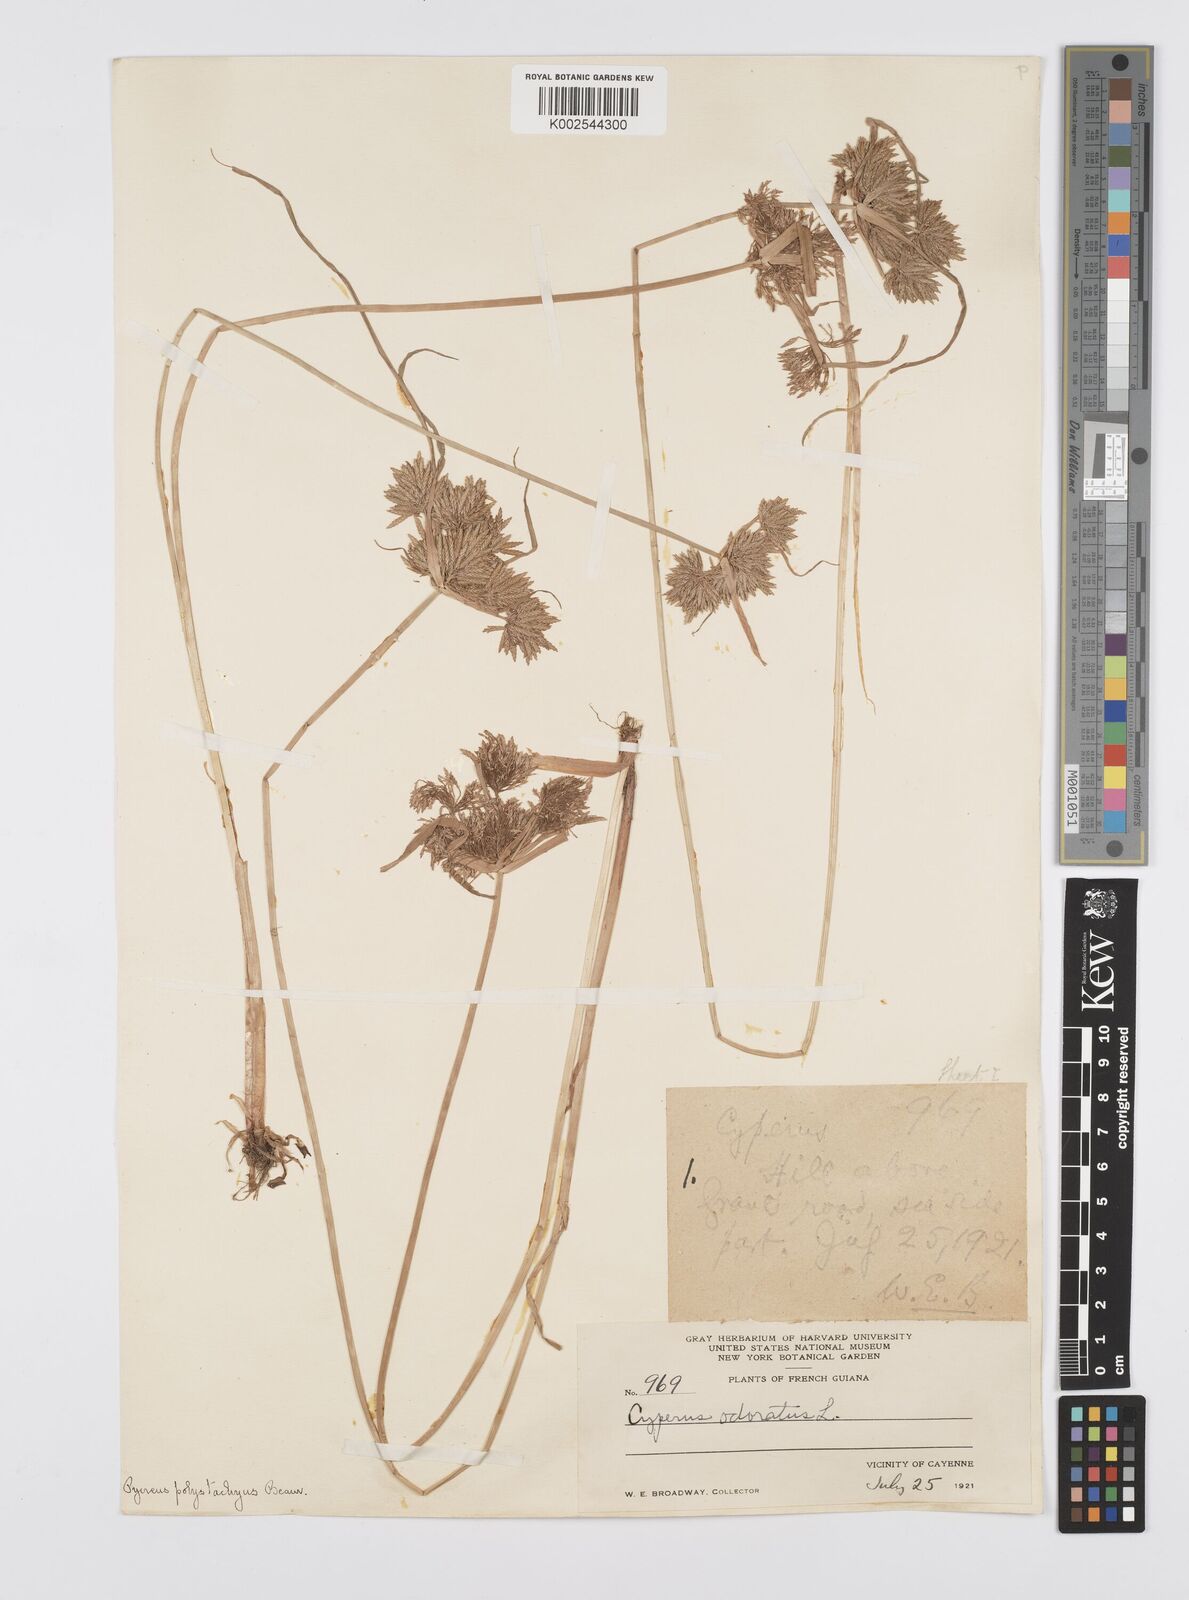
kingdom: Plantae
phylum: Tracheophyta
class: Liliopsida
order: Poales
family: Cyperaceae
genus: Cyperus
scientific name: Cyperus polystachyos
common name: Bunchy flat sedge
